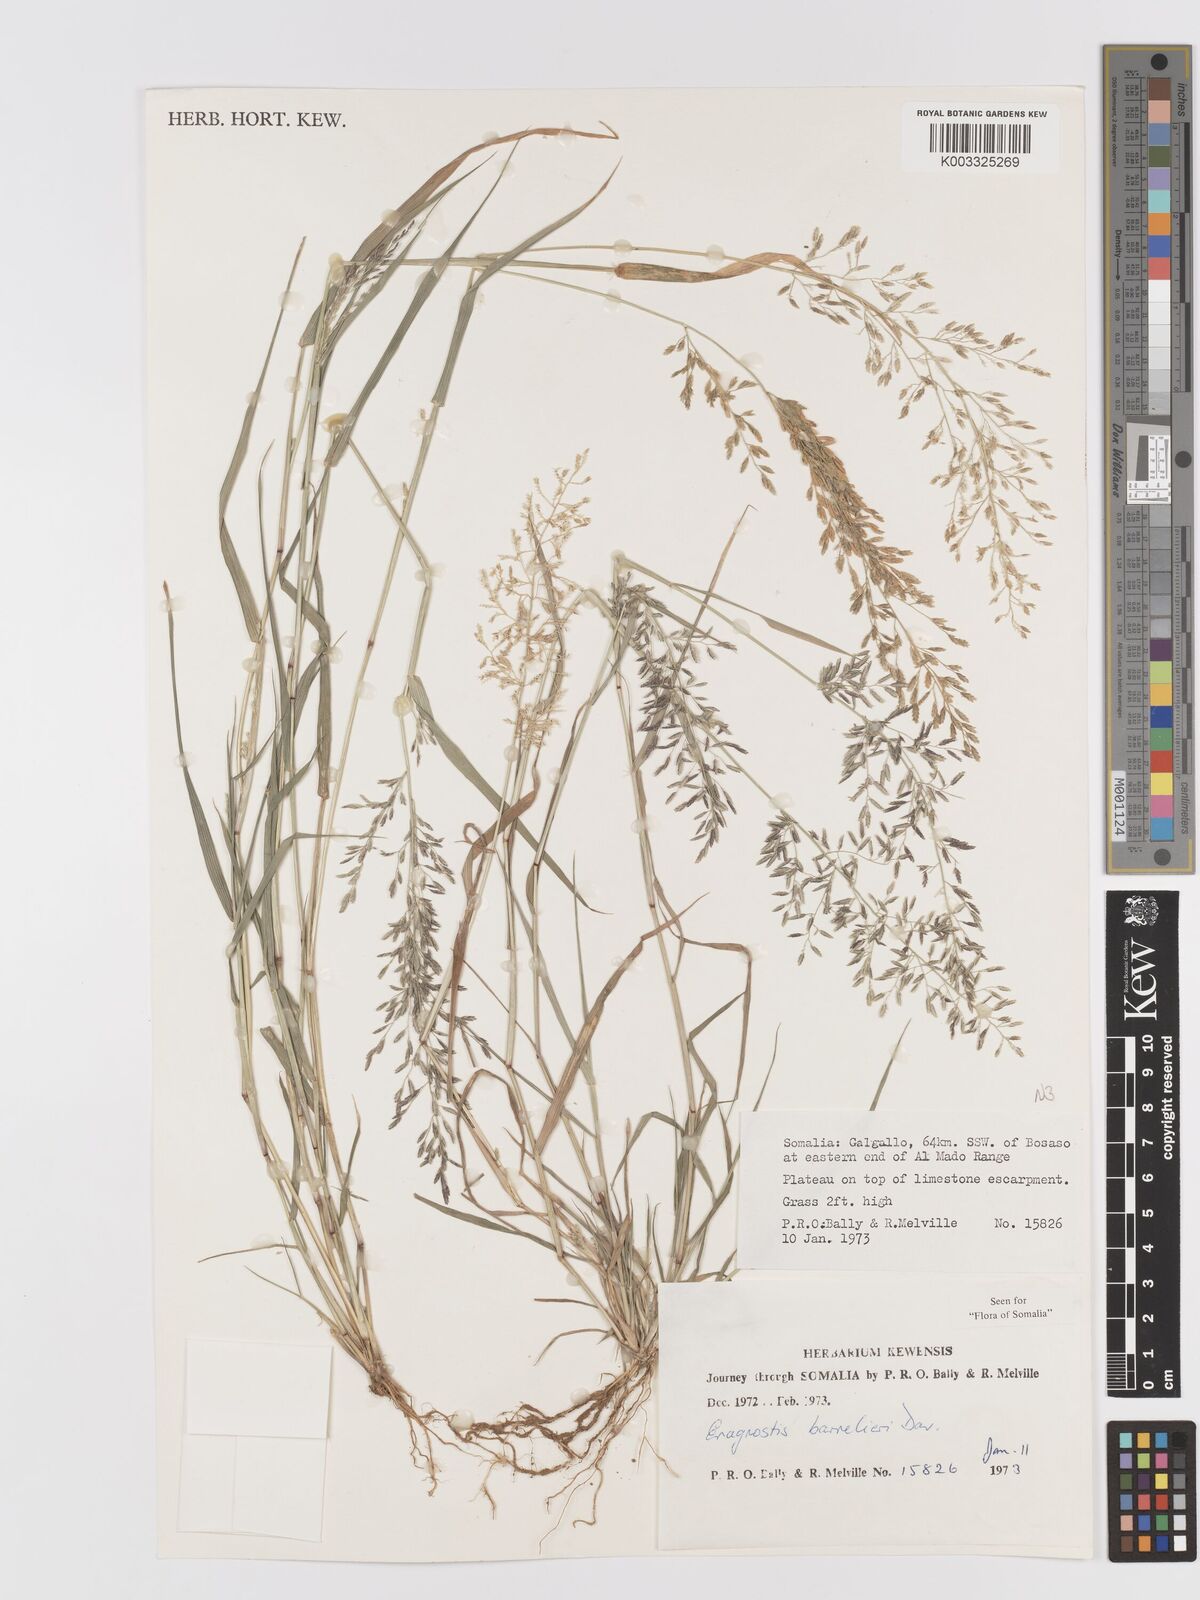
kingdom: Plantae
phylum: Tracheophyta
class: Liliopsida
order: Poales
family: Poaceae
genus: Eragrostis
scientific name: Eragrostis barrelieri
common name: Mediterranean lovegrass
